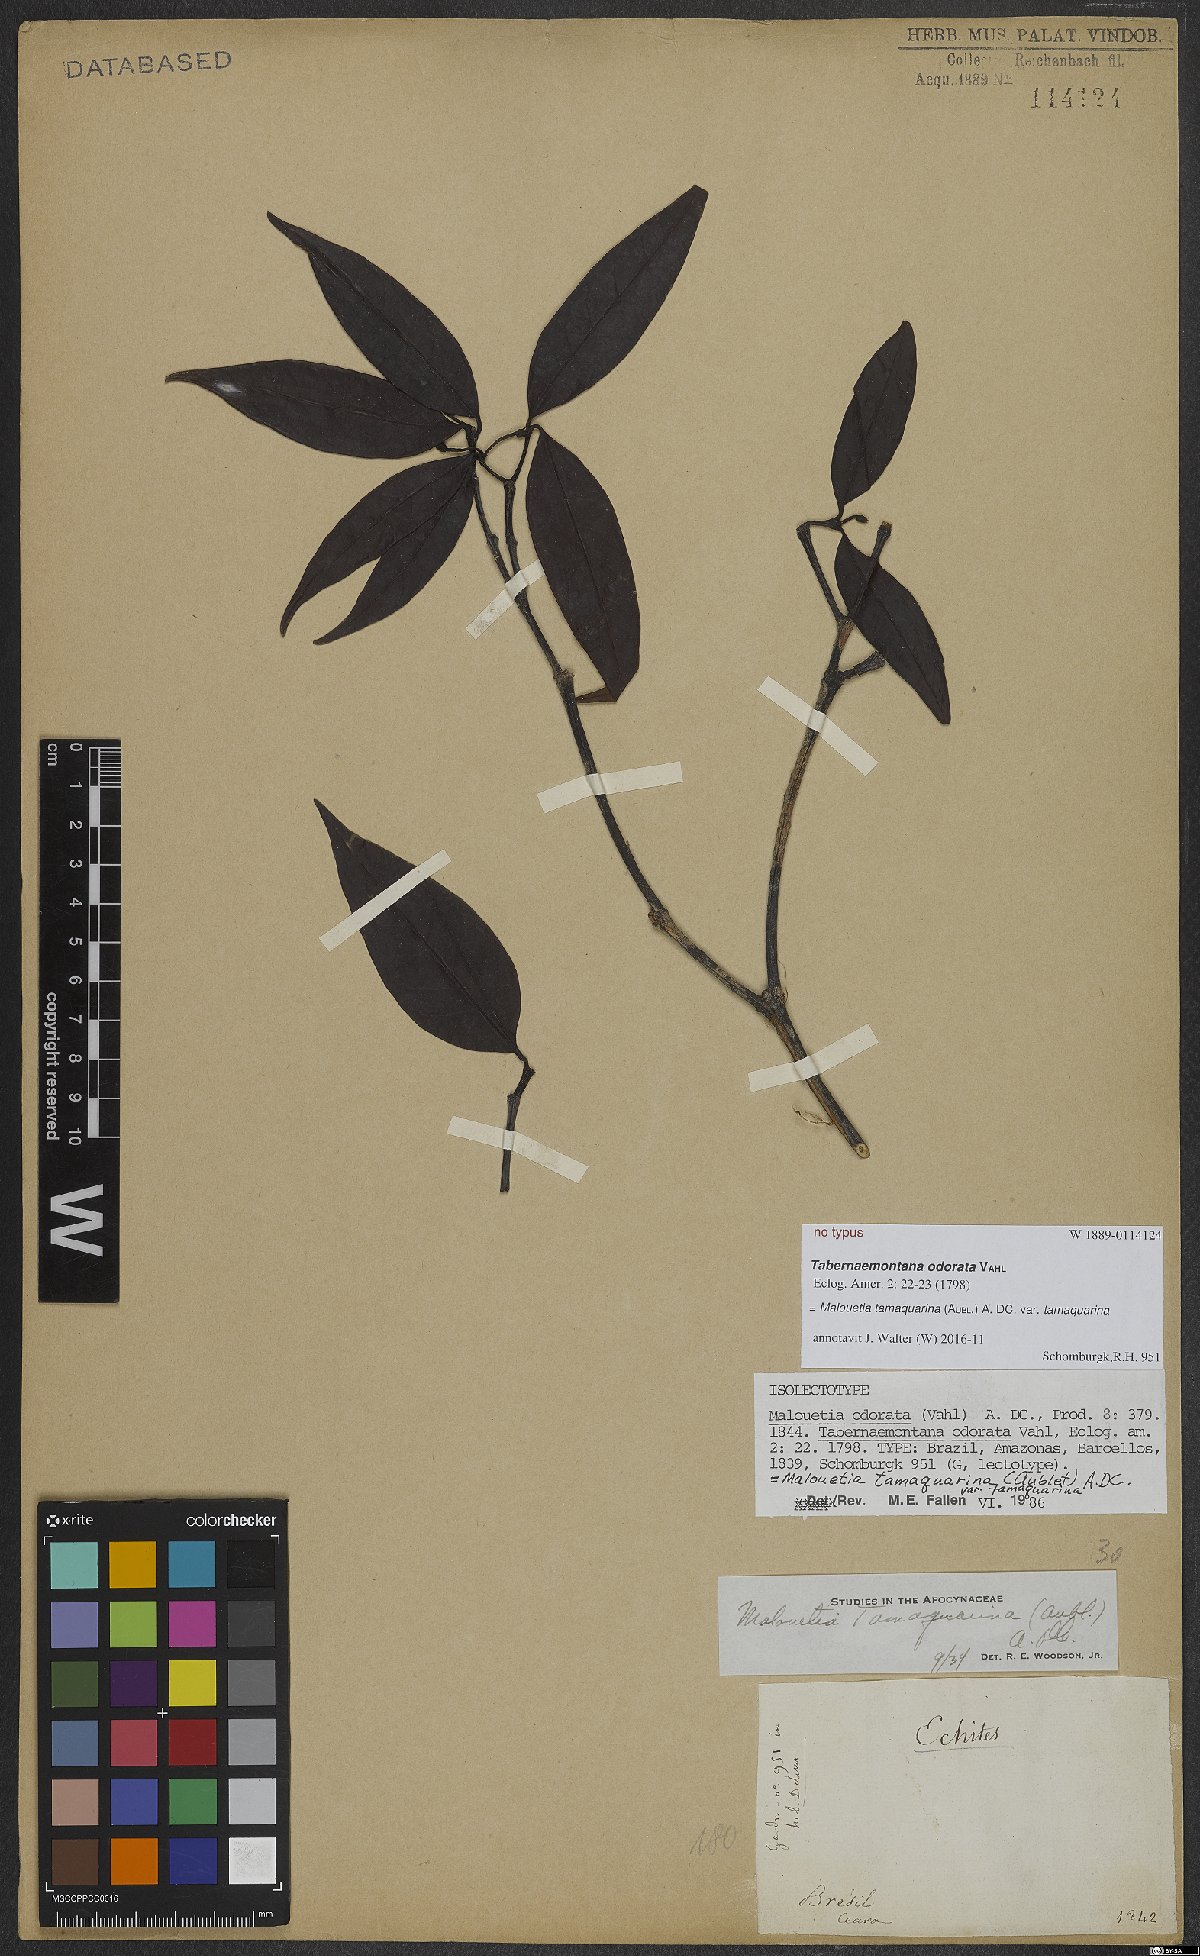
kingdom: Plantae
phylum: Tracheophyta
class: Magnoliopsida
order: Gentianales
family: Apocynaceae
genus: Malouetia
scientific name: Malouetia tamaquarina
